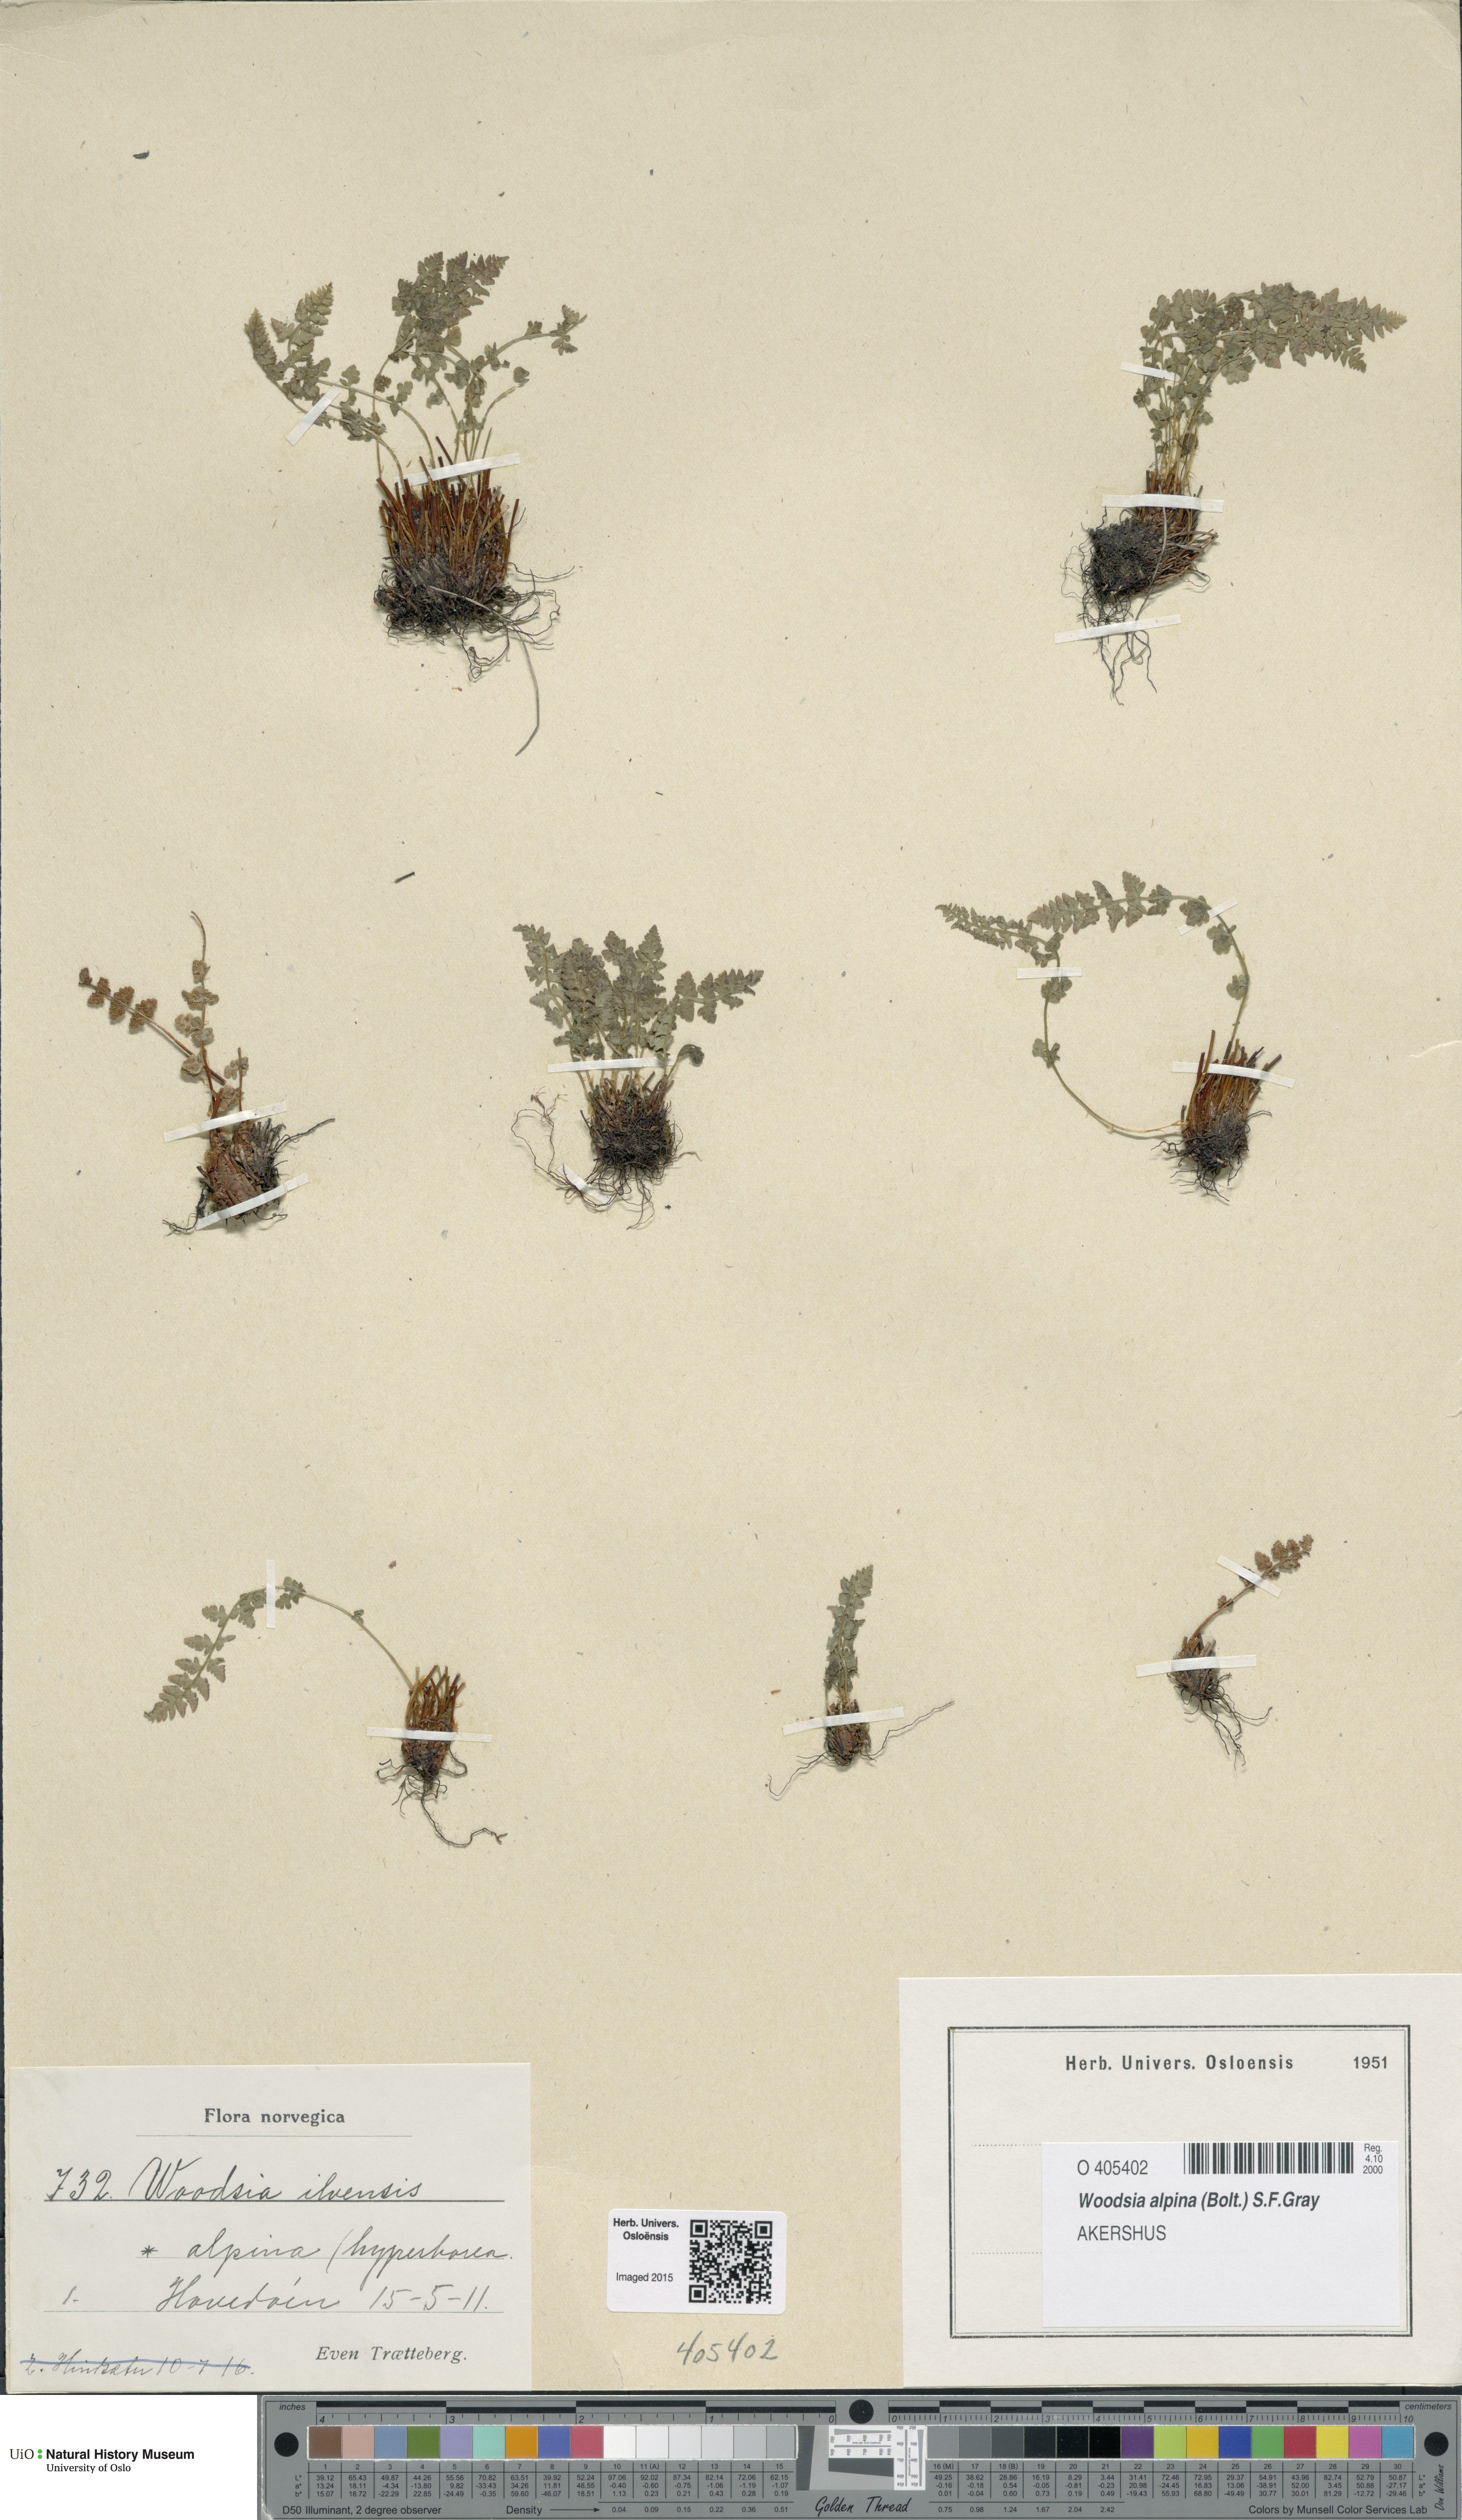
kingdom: Plantae
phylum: Tracheophyta
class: Polypodiopsida
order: Polypodiales
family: Woodsiaceae
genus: Woodsia
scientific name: Woodsia alpina
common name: Alpine woodsia
